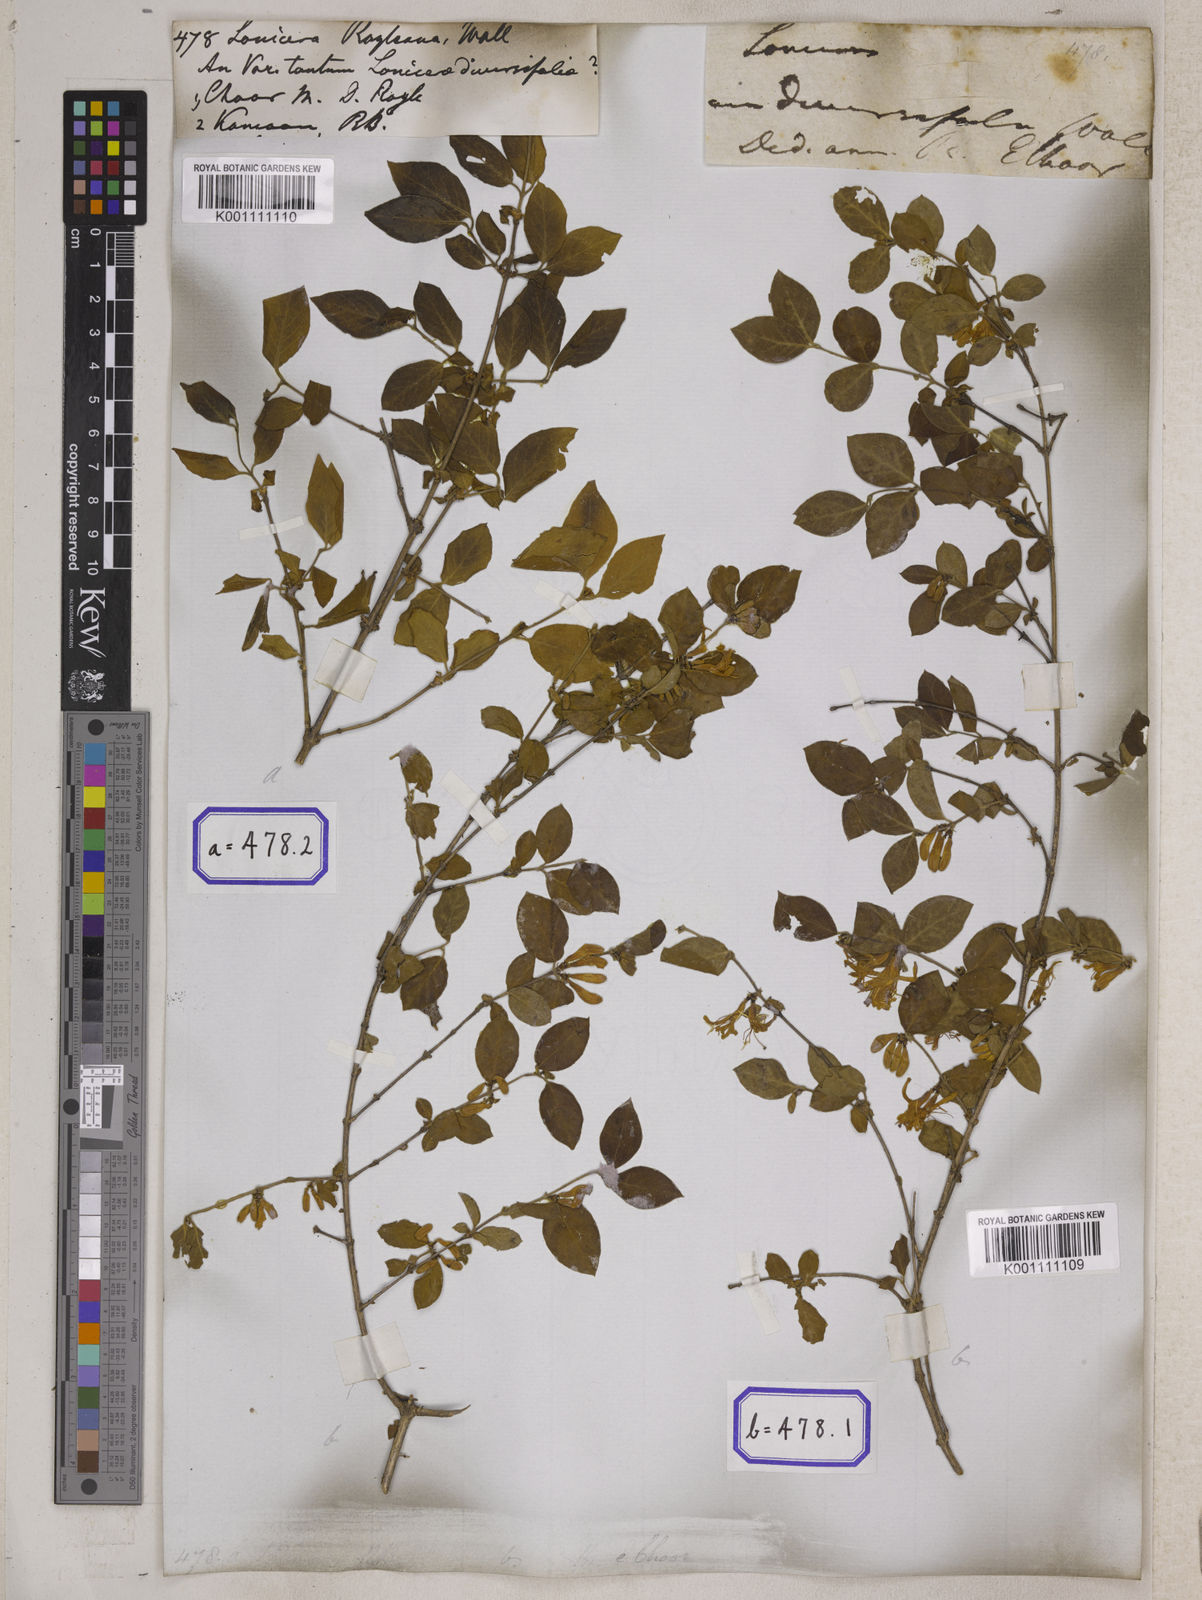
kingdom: Plantae
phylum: Tracheophyta
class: Magnoliopsida
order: Dipsacales
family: Caprifoliaceae
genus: Lonicera
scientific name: Lonicera quinquelocularis
